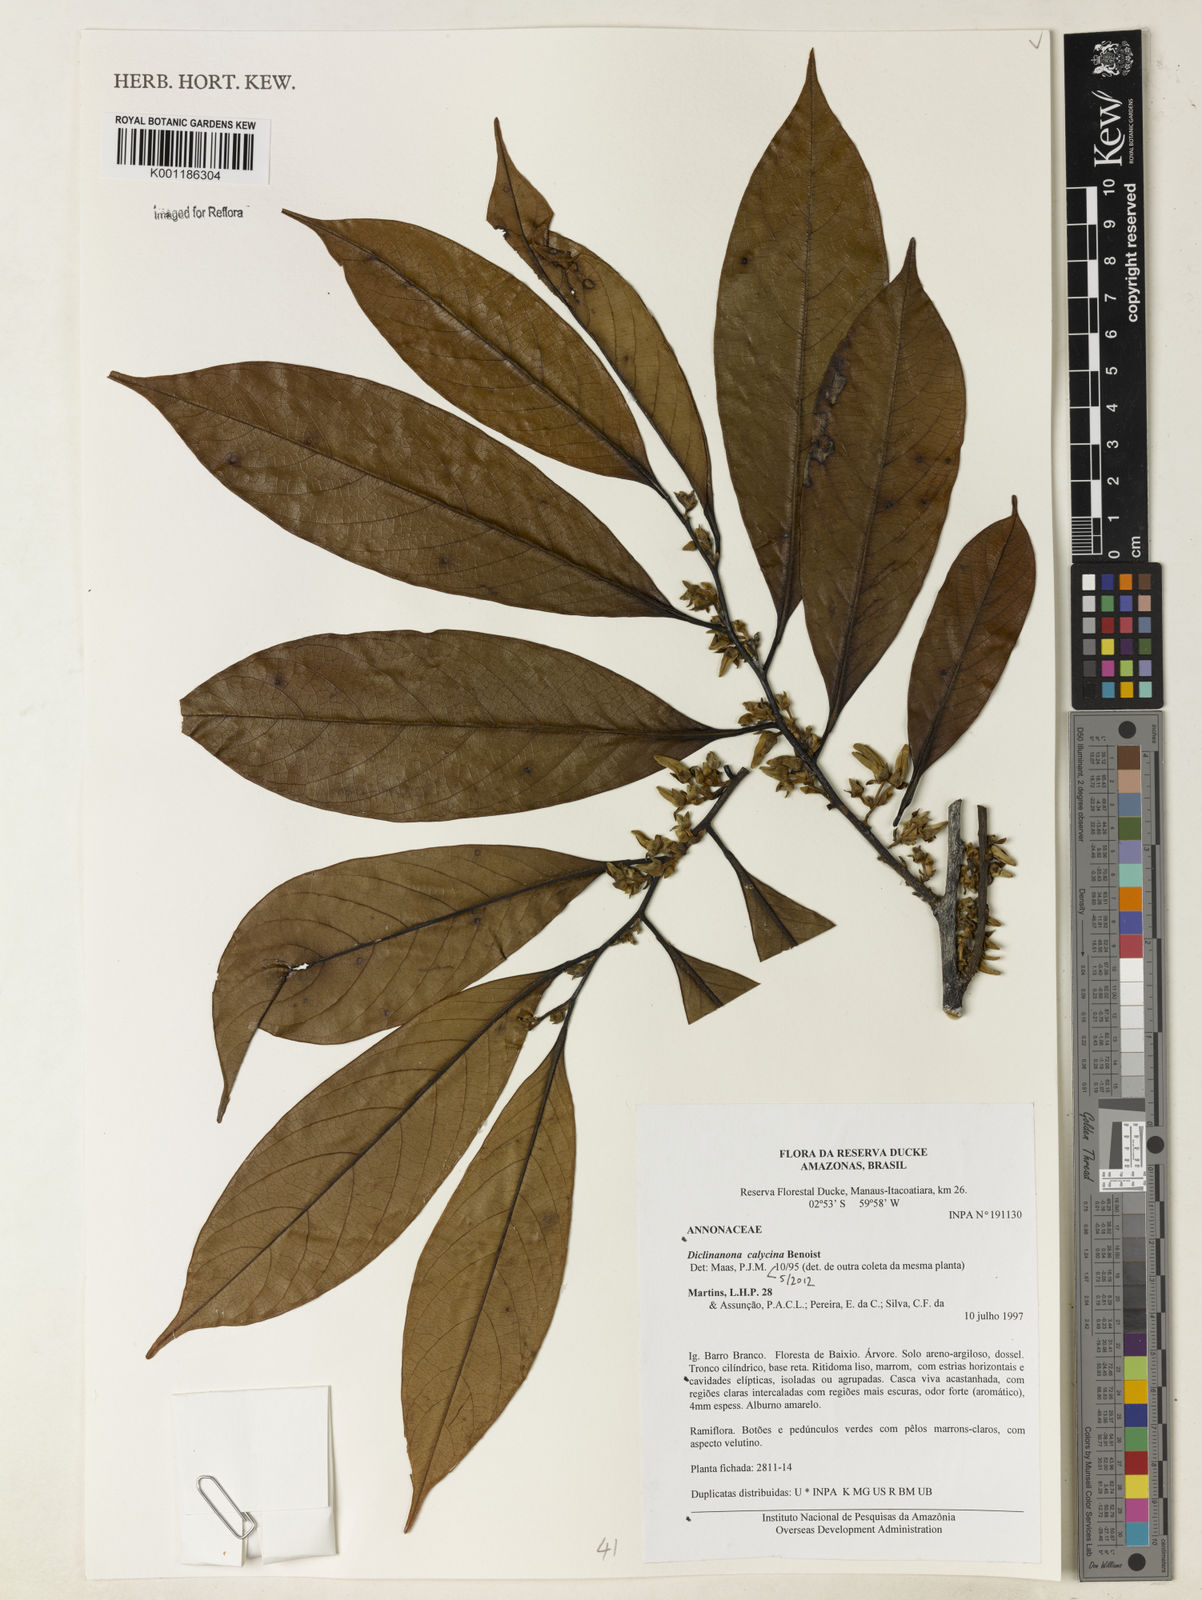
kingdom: Plantae
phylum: Tracheophyta
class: Magnoliopsida
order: Magnoliales
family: Annonaceae
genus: Diclinanona
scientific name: Diclinanona calycina
